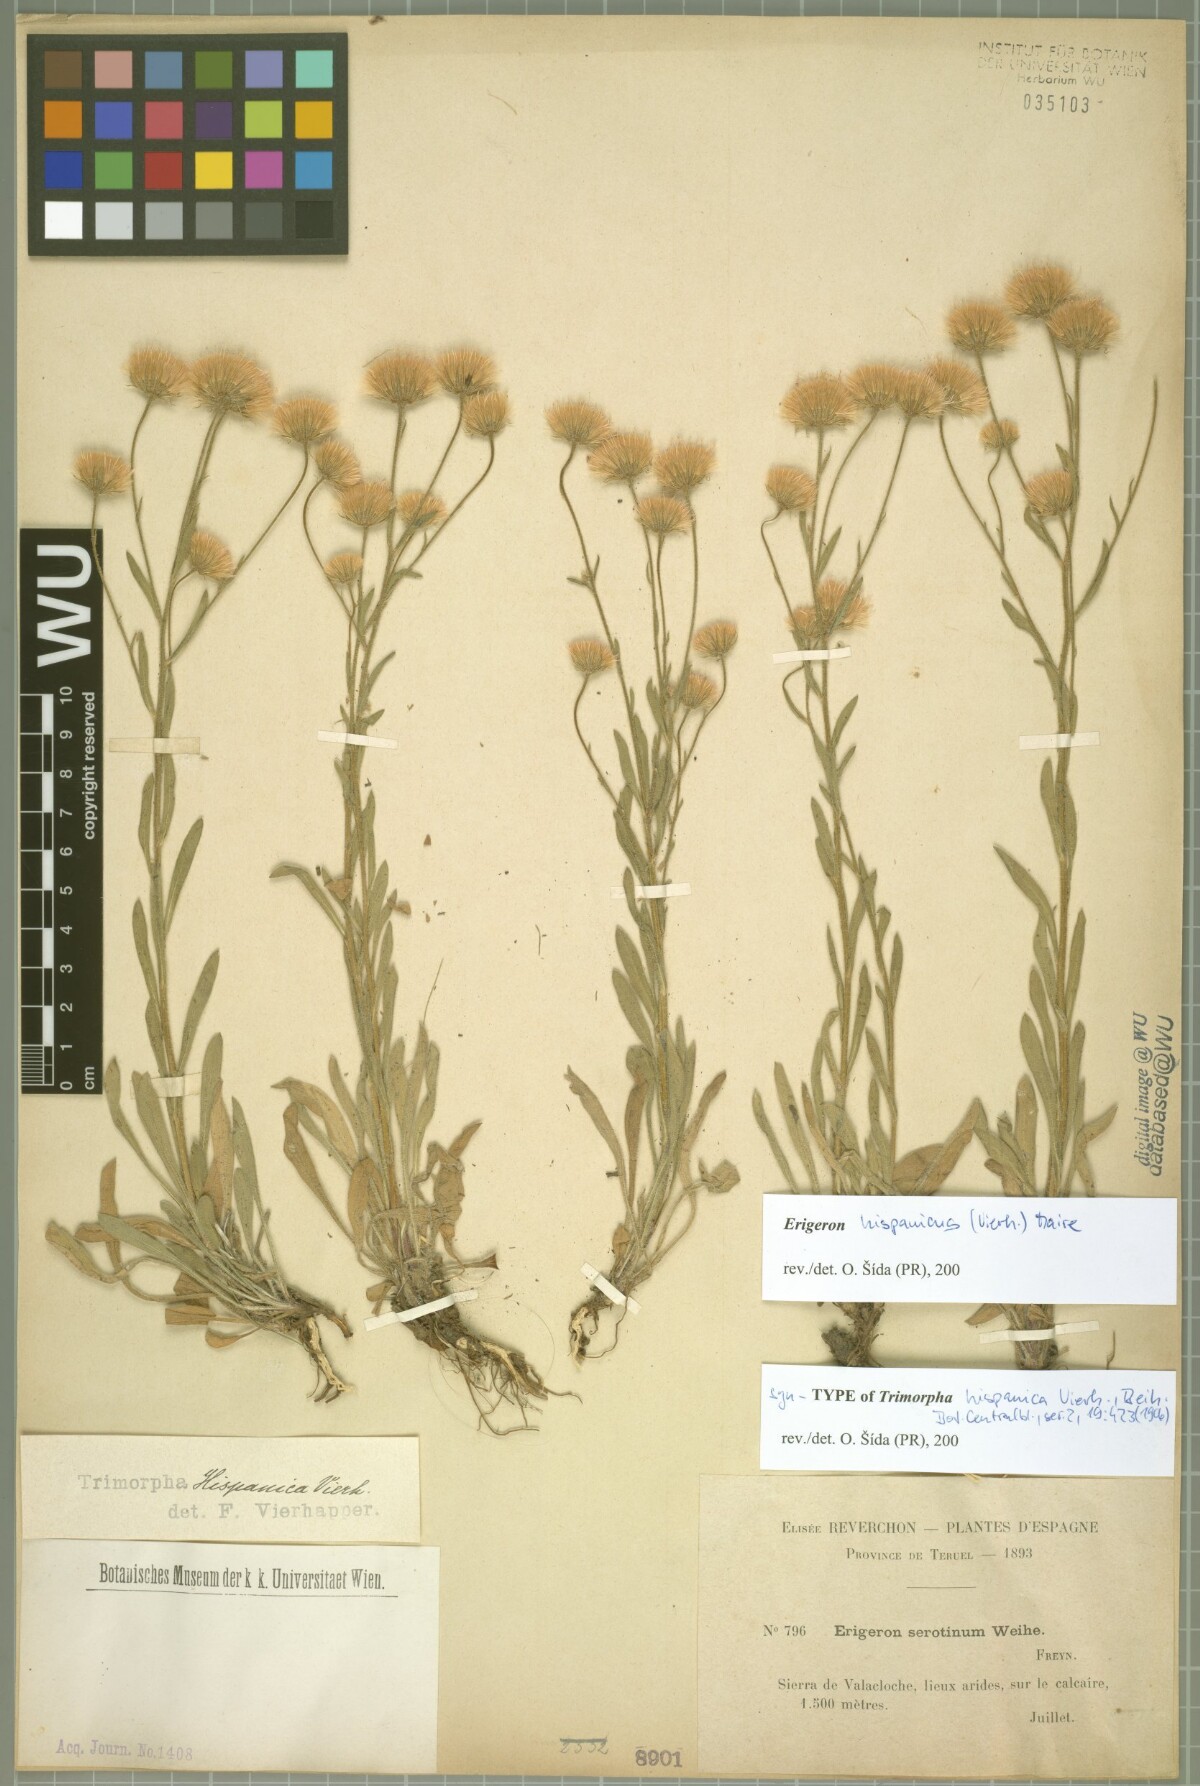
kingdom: Plantae
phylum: Tracheophyta
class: Magnoliopsida
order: Asterales
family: Asteraceae
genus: Erigeron
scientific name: Erigeron hispanicus
